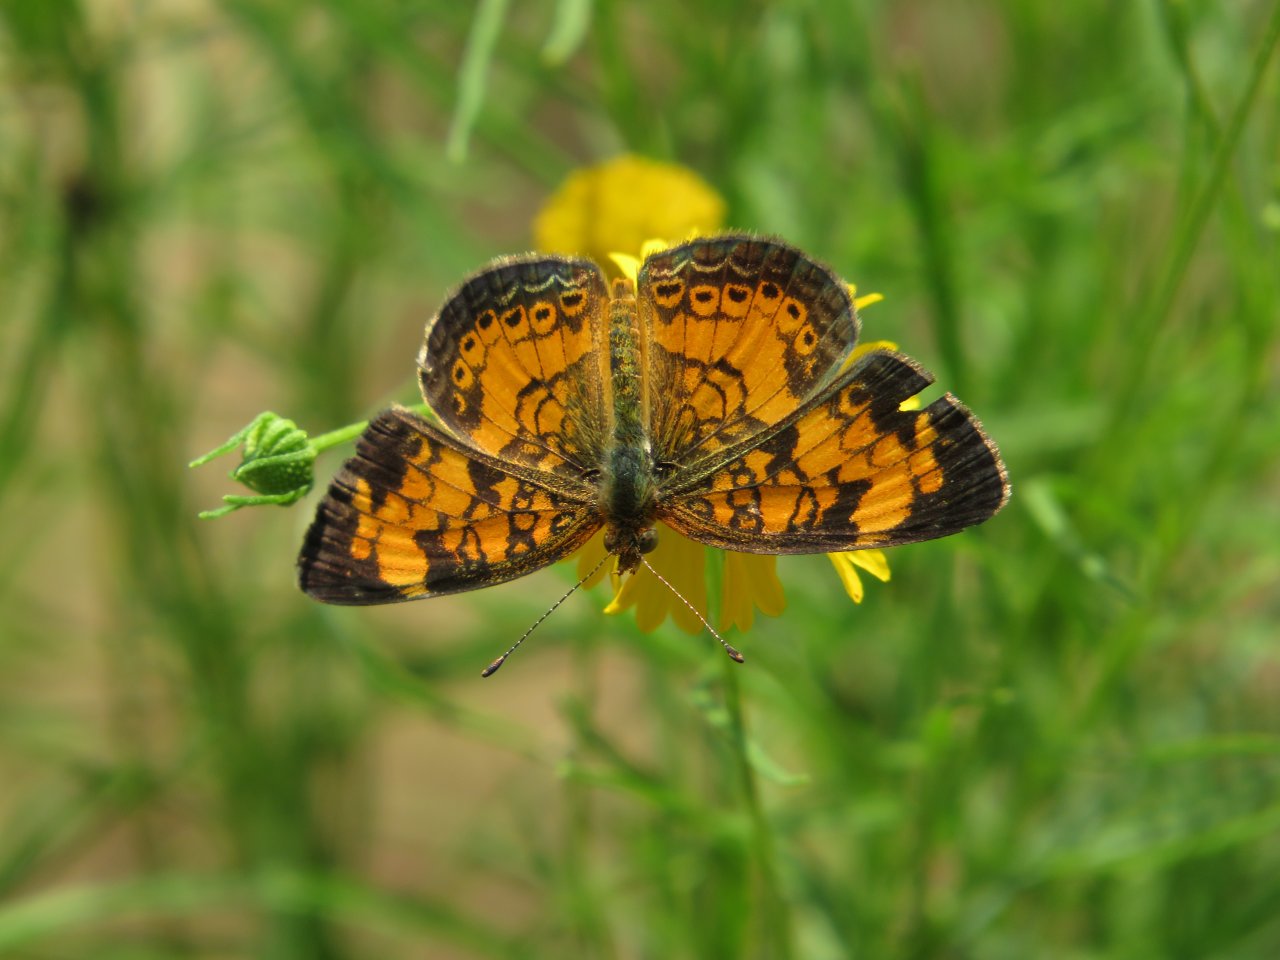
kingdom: Animalia
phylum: Arthropoda
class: Insecta
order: Lepidoptera
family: Nymphalidae
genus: Phyciodes
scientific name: Phyciodes tharos
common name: Pearl Crescent
